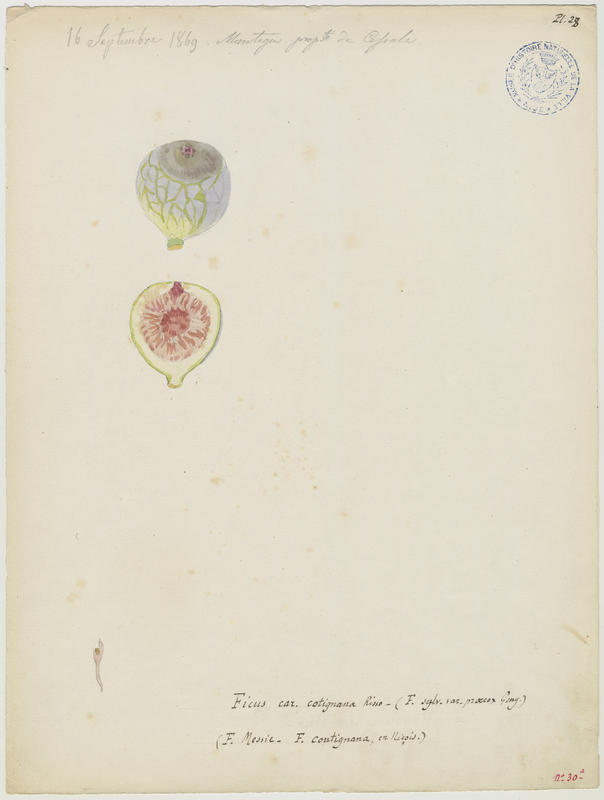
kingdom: Plantae
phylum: Tracheophyta
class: Magnoliopsida
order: Rosales
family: Moraceae
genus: Ficus
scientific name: Ficus carica
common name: Fig
